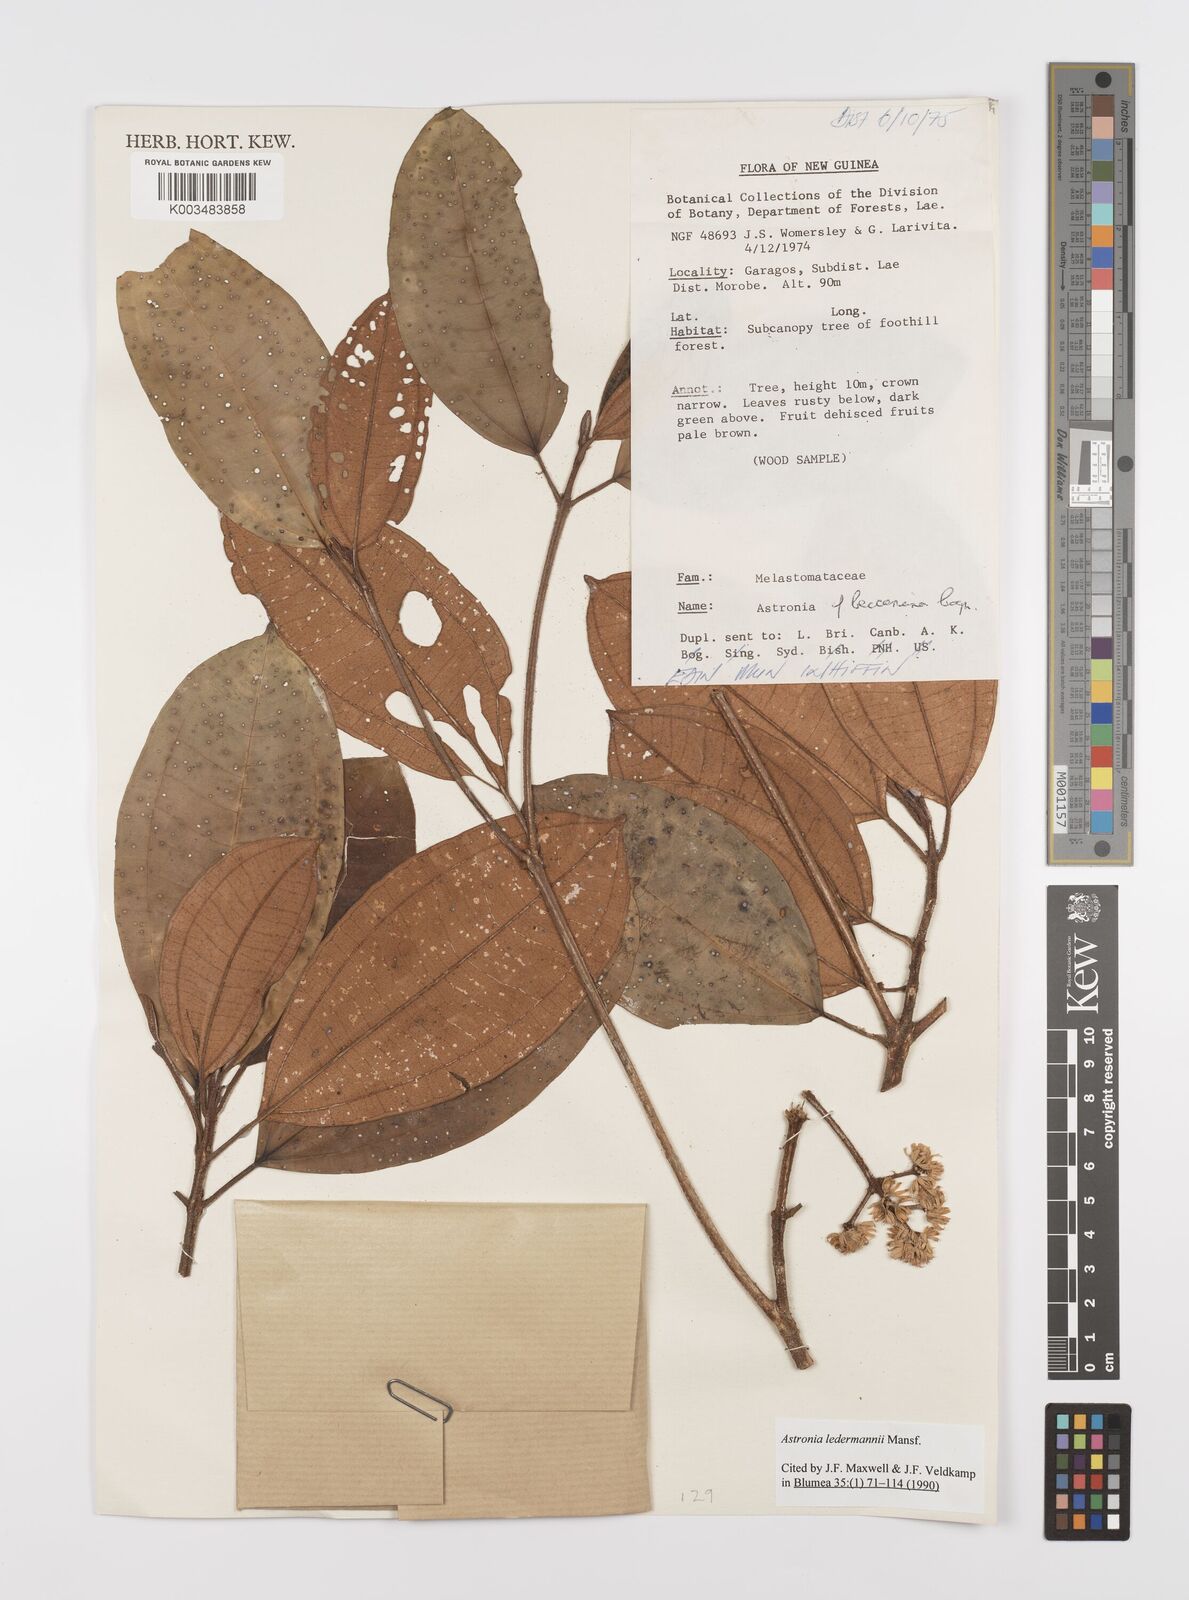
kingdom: Plantae
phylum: Tracheophyta
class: Magnoliopsida
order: Myrtales
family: Melastomataceae
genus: Astronia
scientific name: Astronia ledermannii
